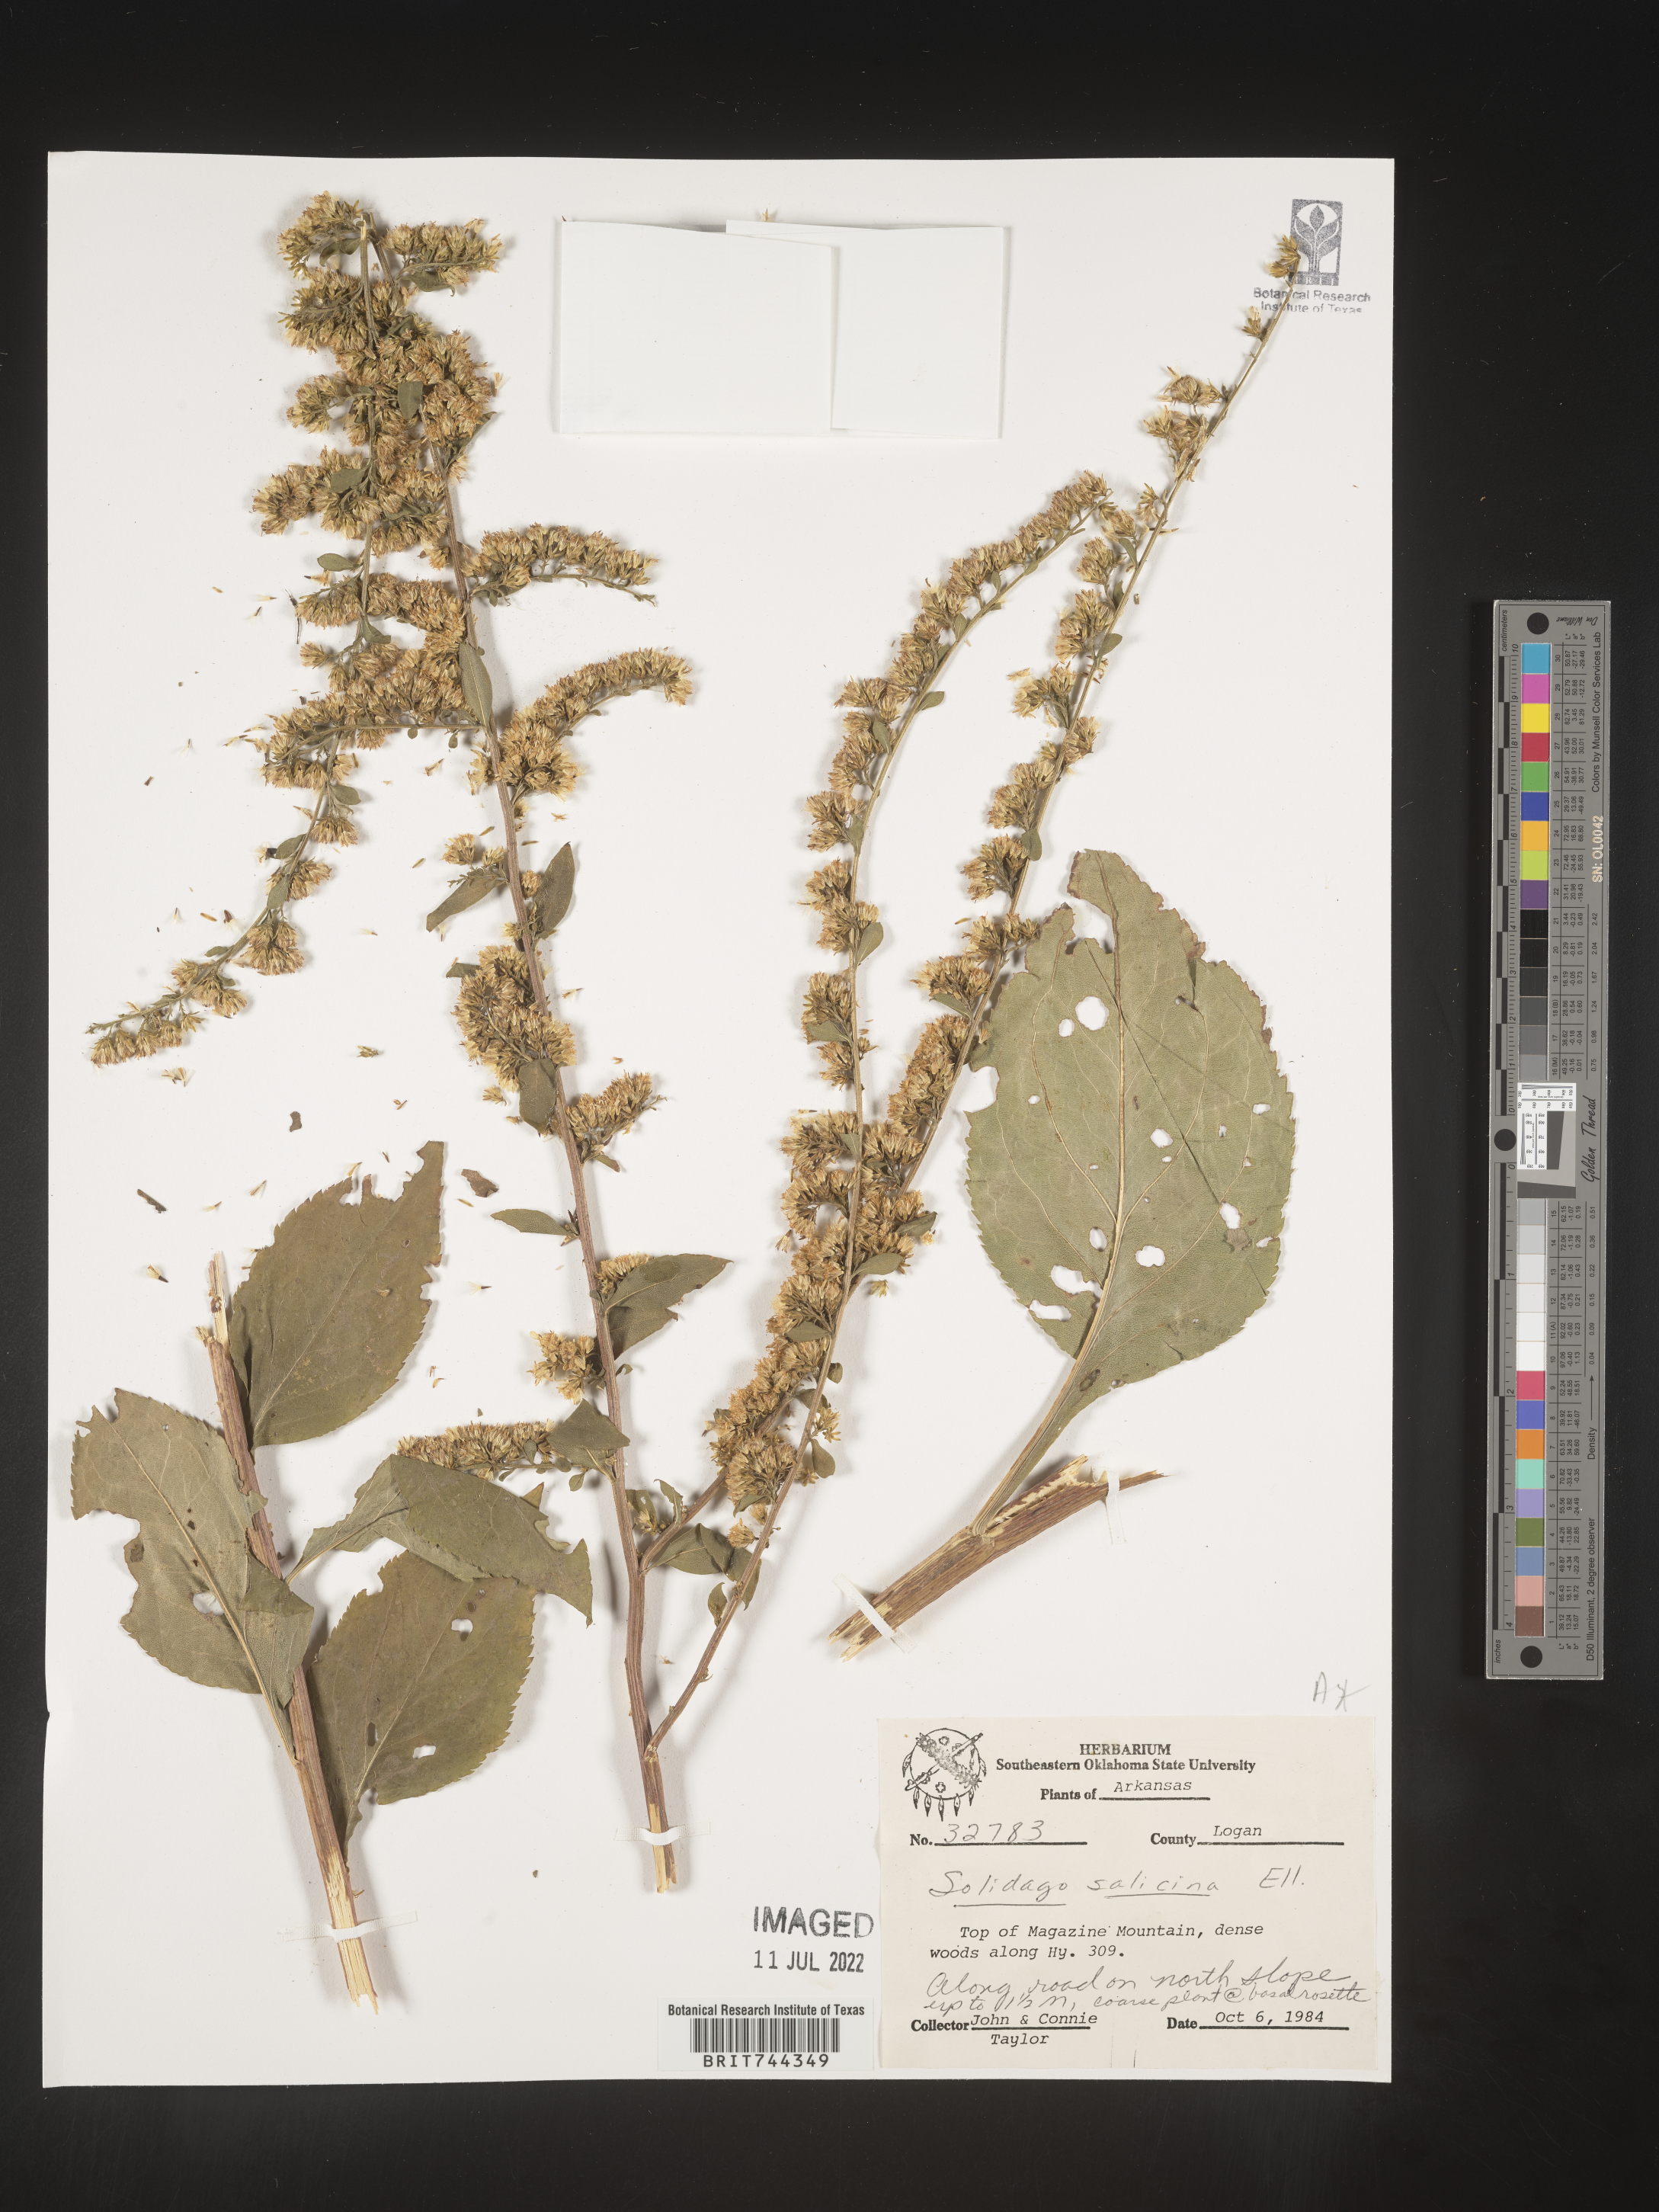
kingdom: Plantae
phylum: Tracheophyta
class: Magnoliopsida
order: Asterales
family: Asteraceae
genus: Solidago
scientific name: Solidago arguta
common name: Atlantic goldenrod
